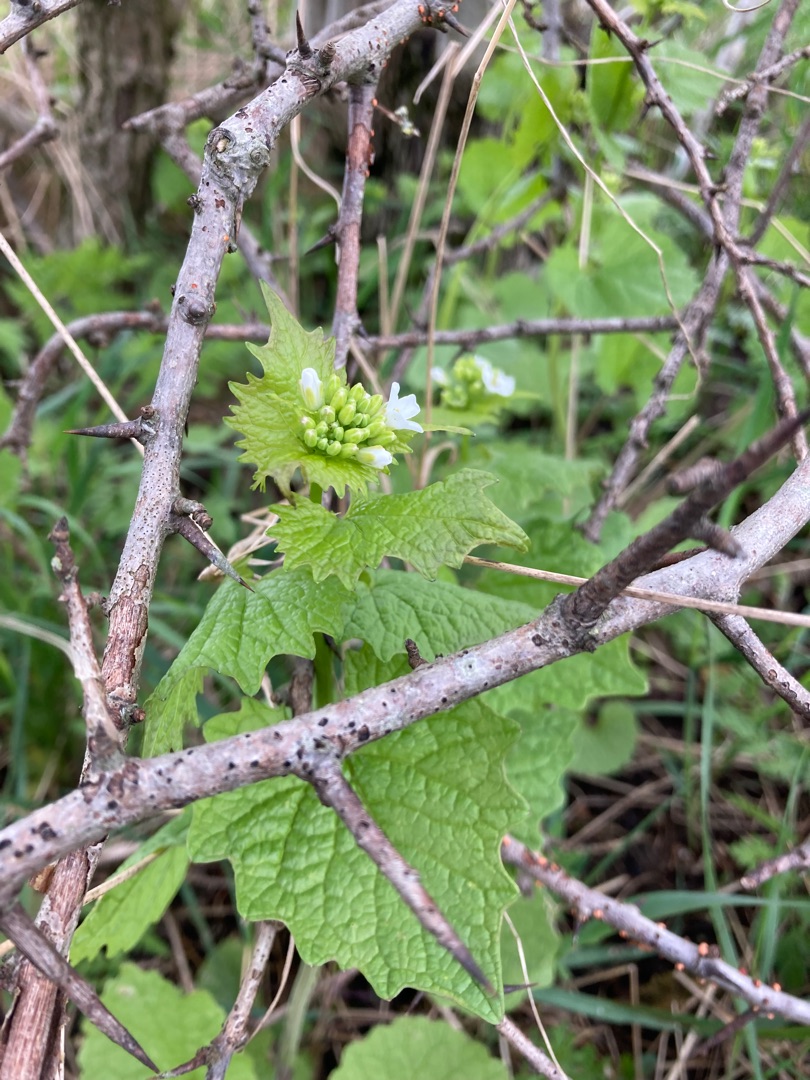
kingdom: Plantae
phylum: Tracheophyta
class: Magnoliopsida
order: Brassicales
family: Brassicaceae
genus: Alliaria
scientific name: Alliaria petiolata
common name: Løgkarse
